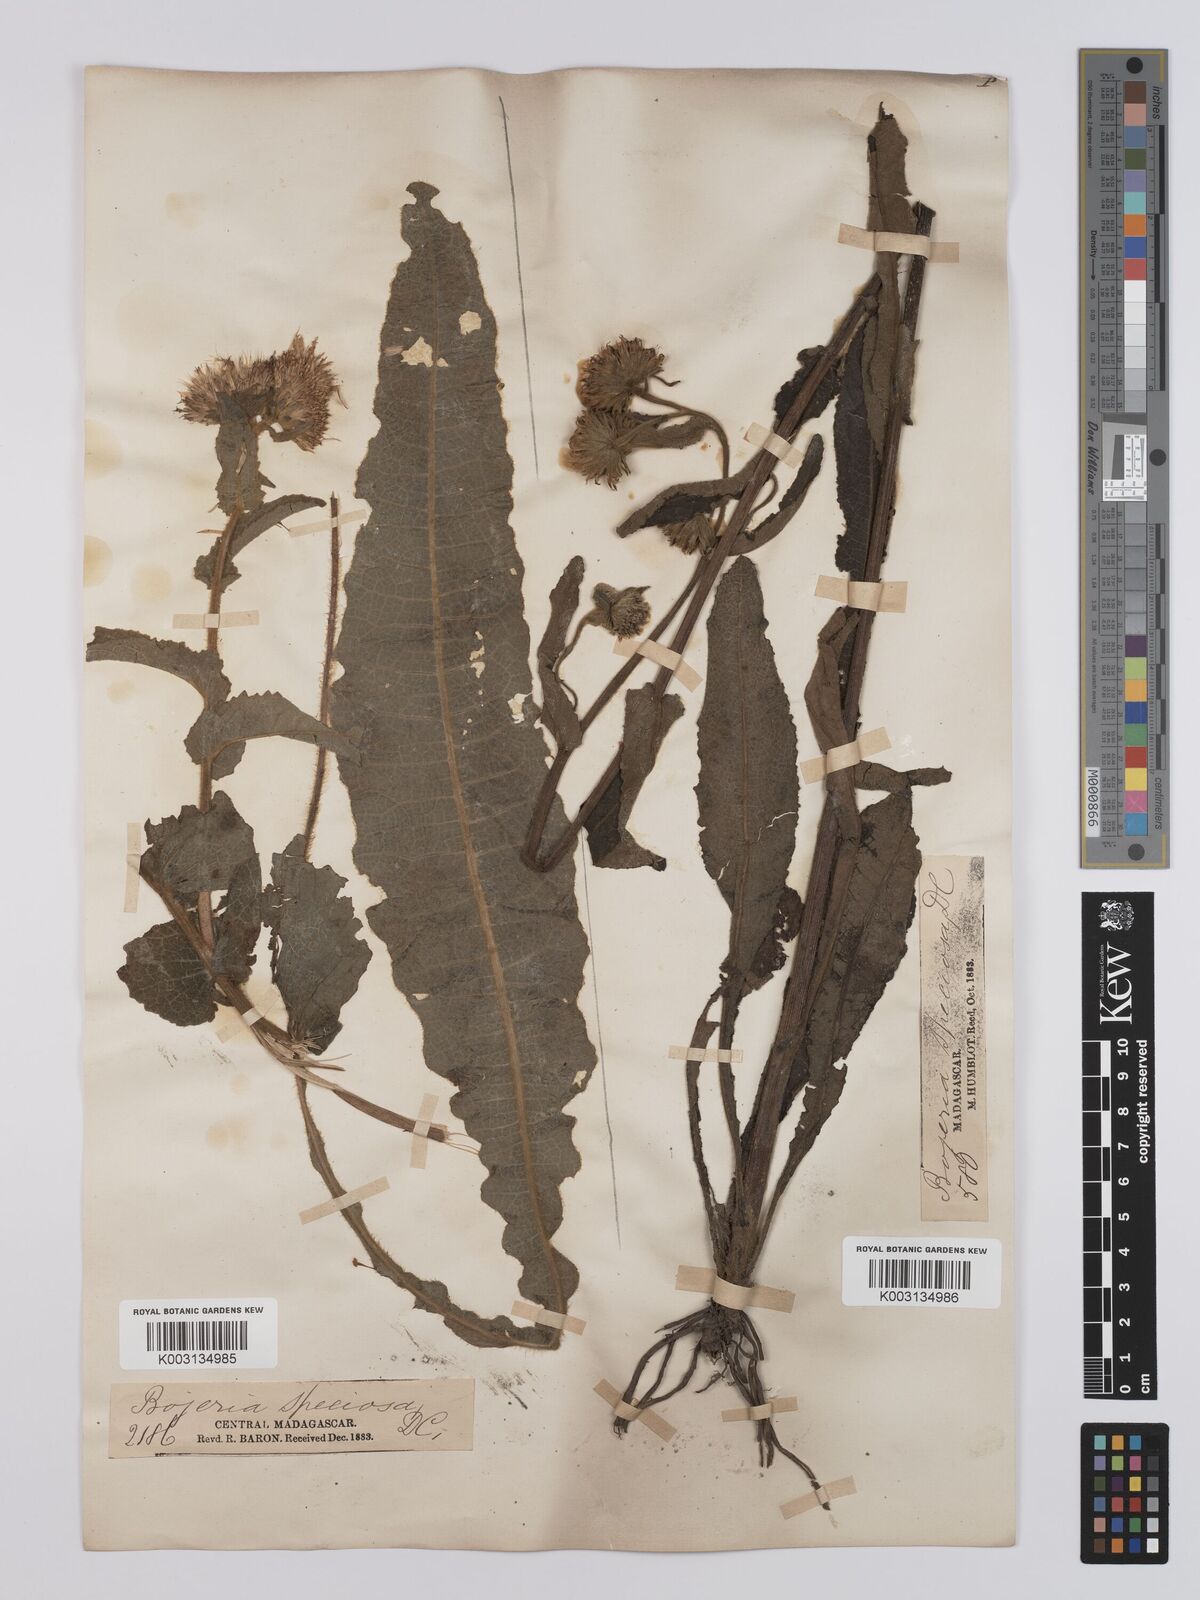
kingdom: Plantae
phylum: Tracheophyta
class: Magnoliopsida
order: Asterales
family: Asteraceae
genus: Inula
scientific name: Inula speciosa
